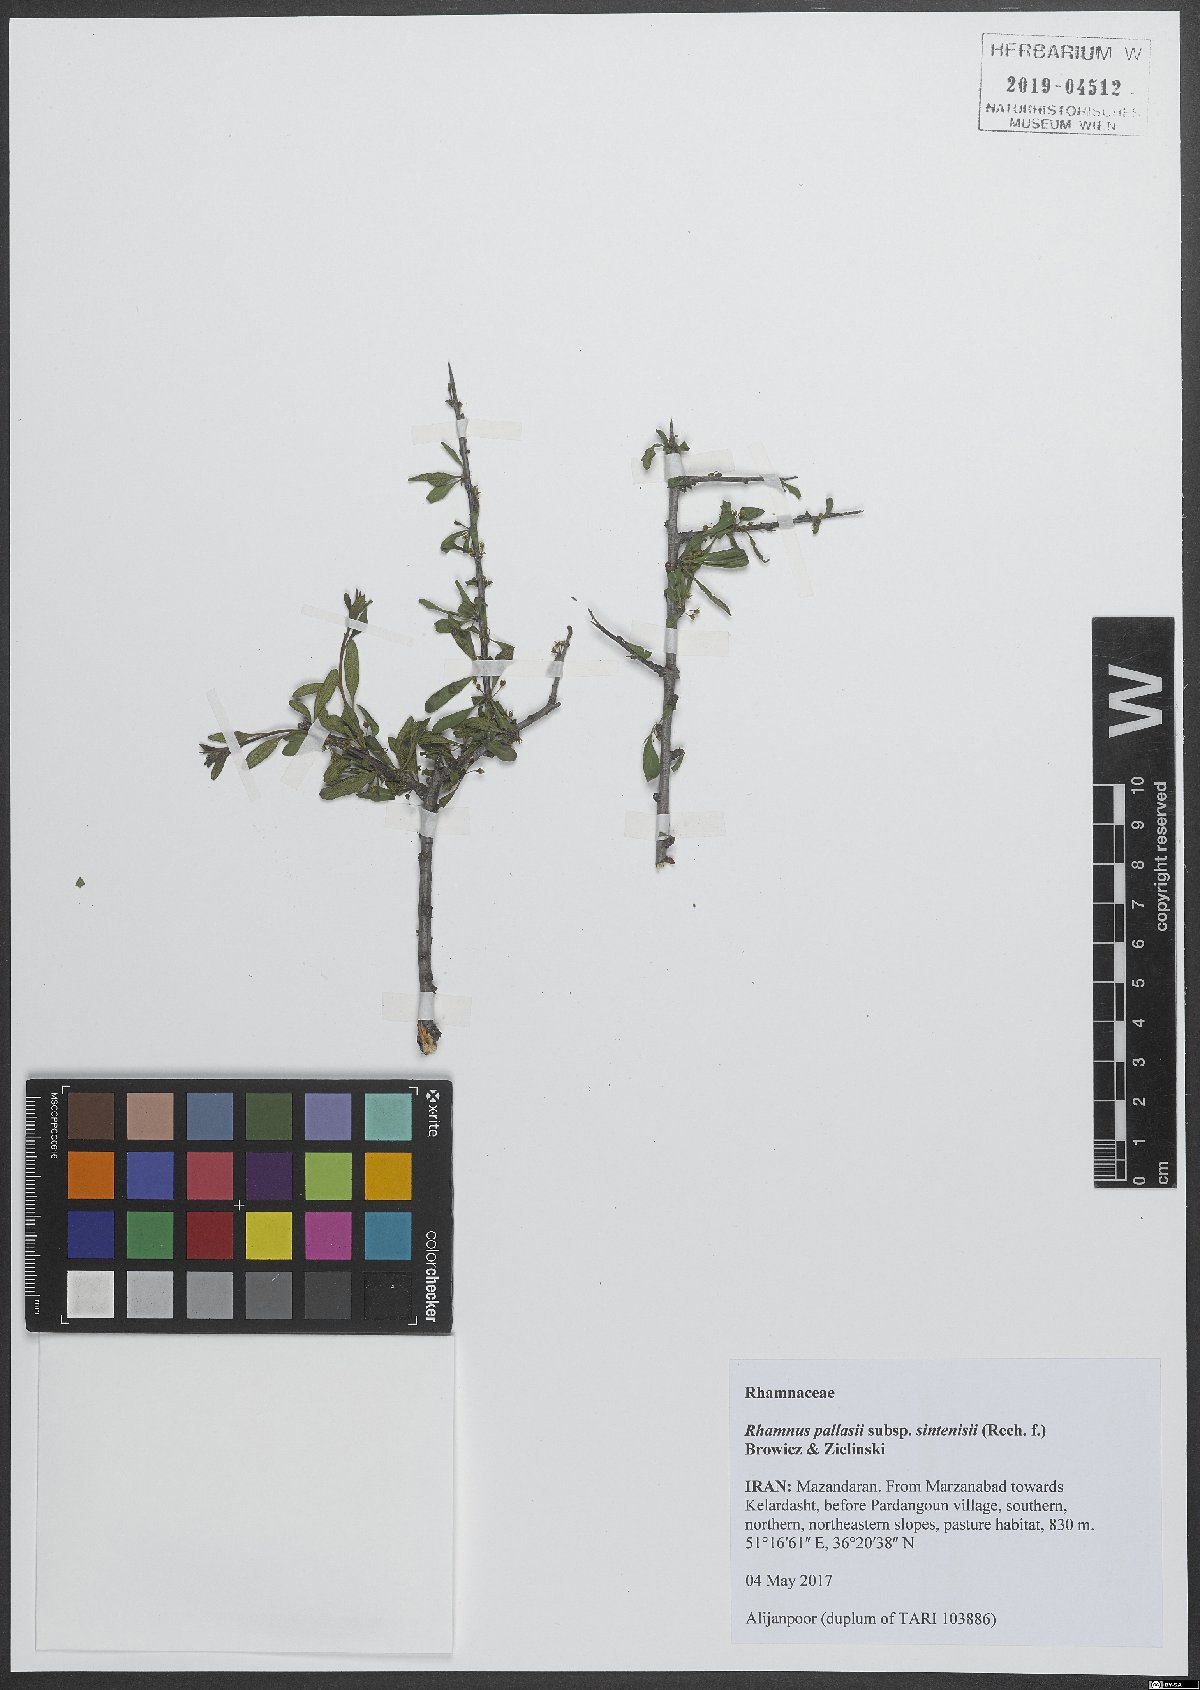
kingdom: Plantae
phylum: Tracheophyta
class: Magnoliopsida
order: Rosales
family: Rhamnaceae
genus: Rhamnus
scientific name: Rhamnus erythroxyloides
